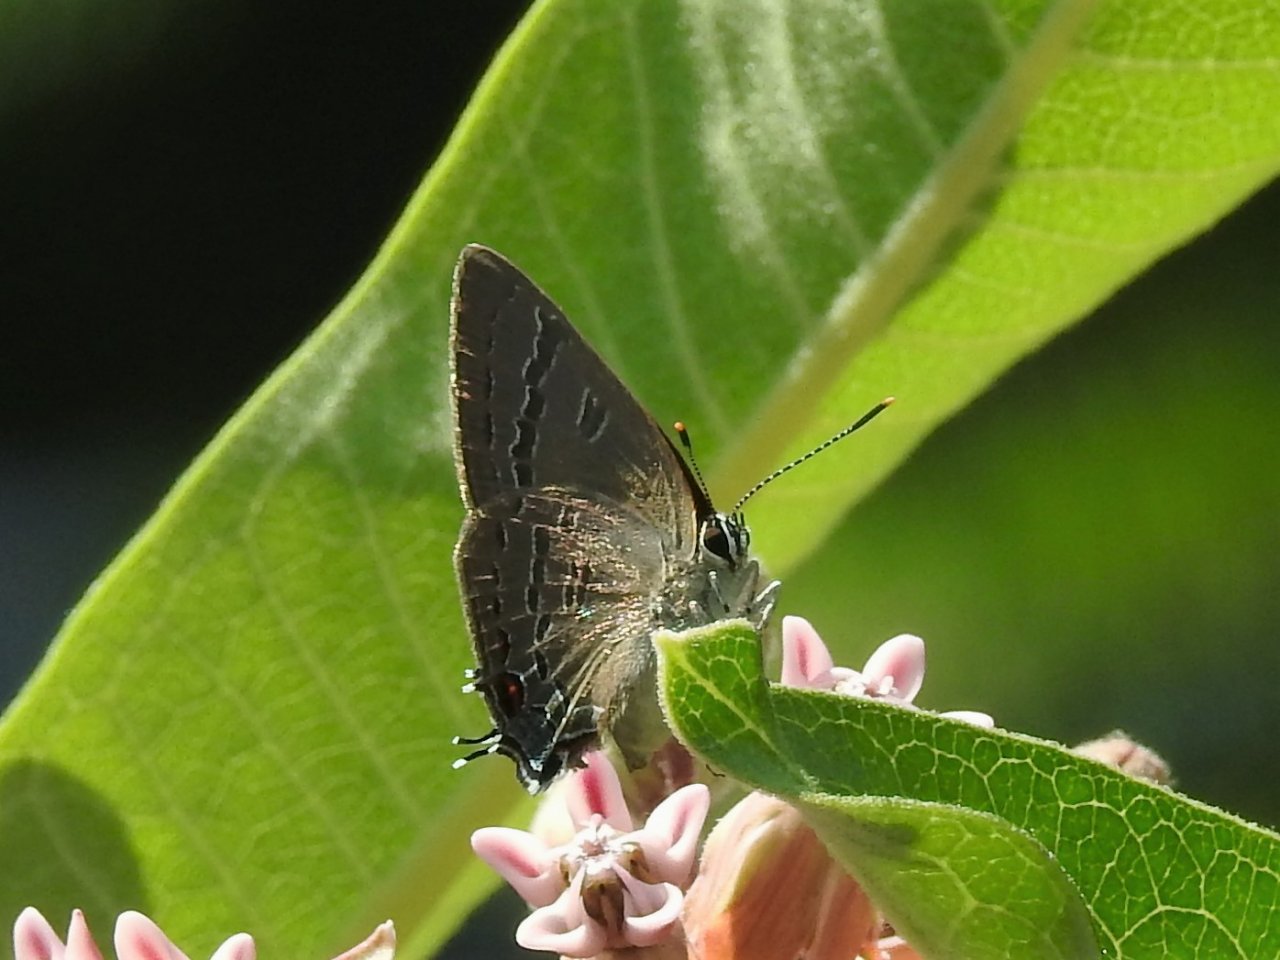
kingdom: Animalia
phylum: Arthropoda
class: Insecta
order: Lepidoptera
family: Lycaenidae
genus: Satyrium
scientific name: Satyrium calanus
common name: Banded Hairstreak
